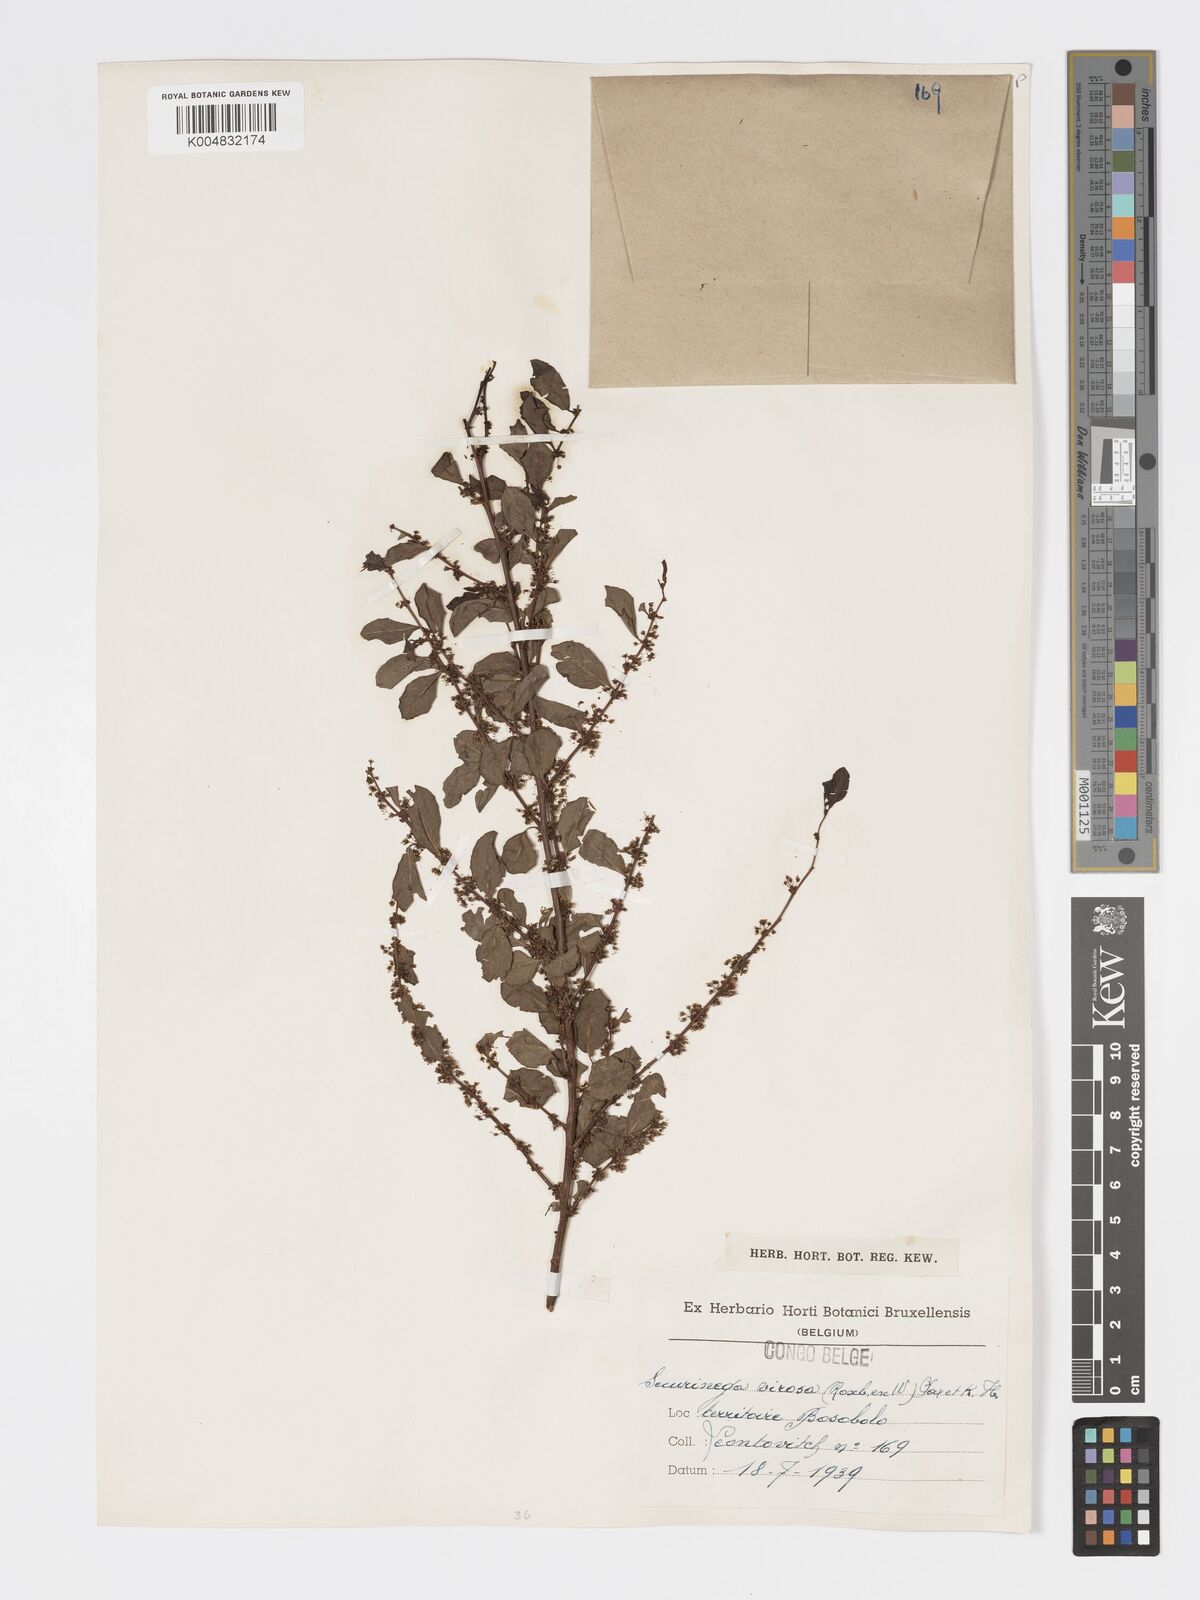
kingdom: Plantae
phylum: Tracheophyta
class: Magnoliopsida
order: Malpighiales
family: Phyllanthaceae
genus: Flueggea
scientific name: Flueggea virosa
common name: Common bushweed
